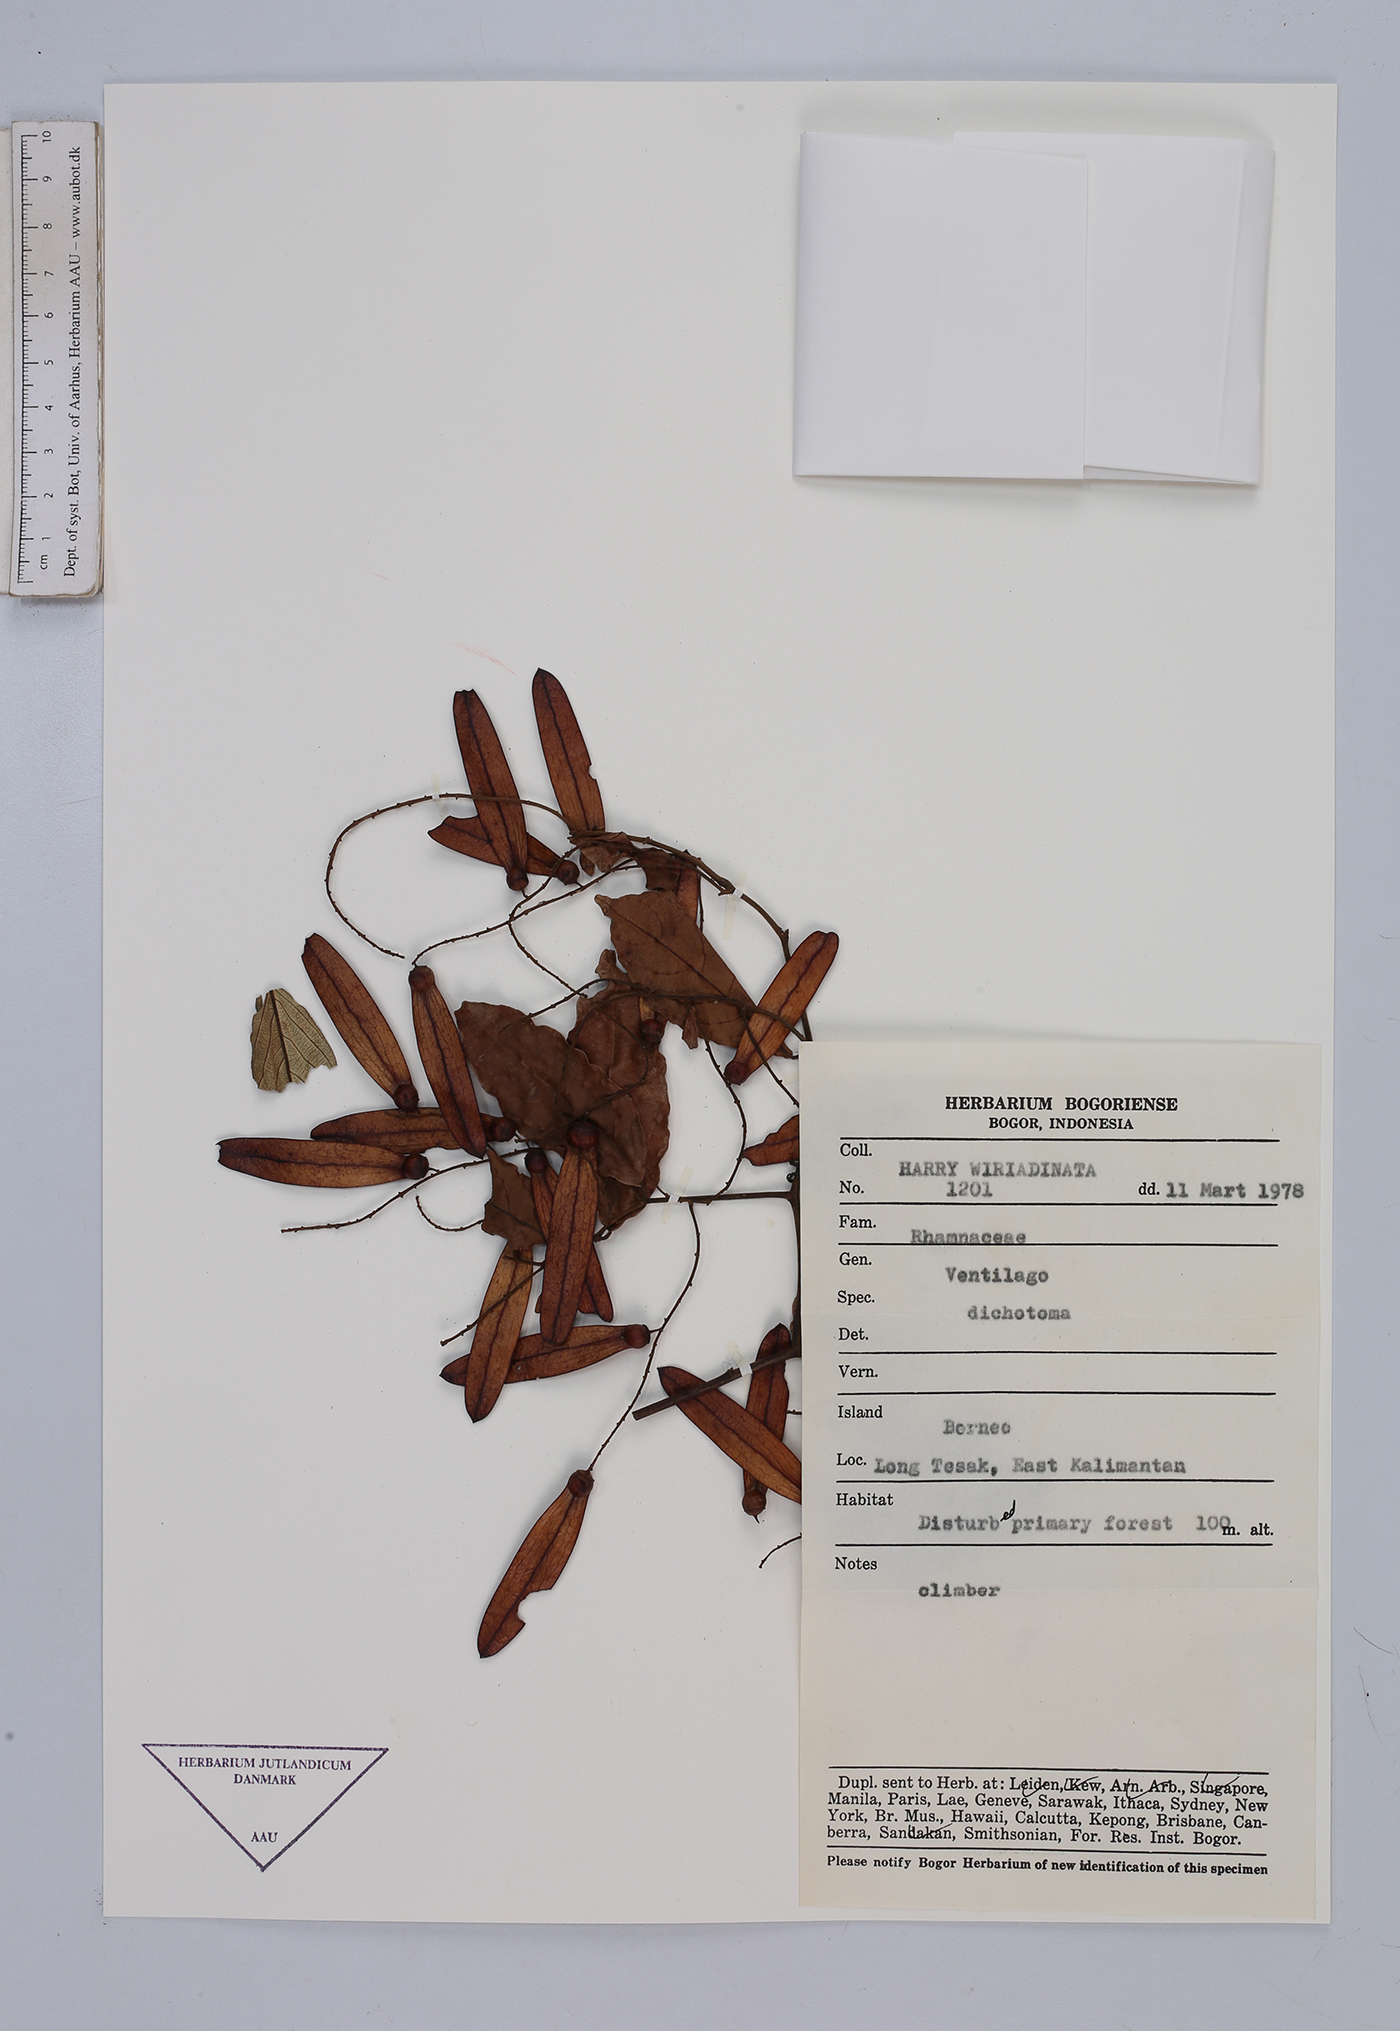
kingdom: Plantae
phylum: Tracheophyta
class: Magnoliopsida
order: Rosales
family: Rhamnaceae
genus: Ventilago
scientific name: Ventilago dichotoma
